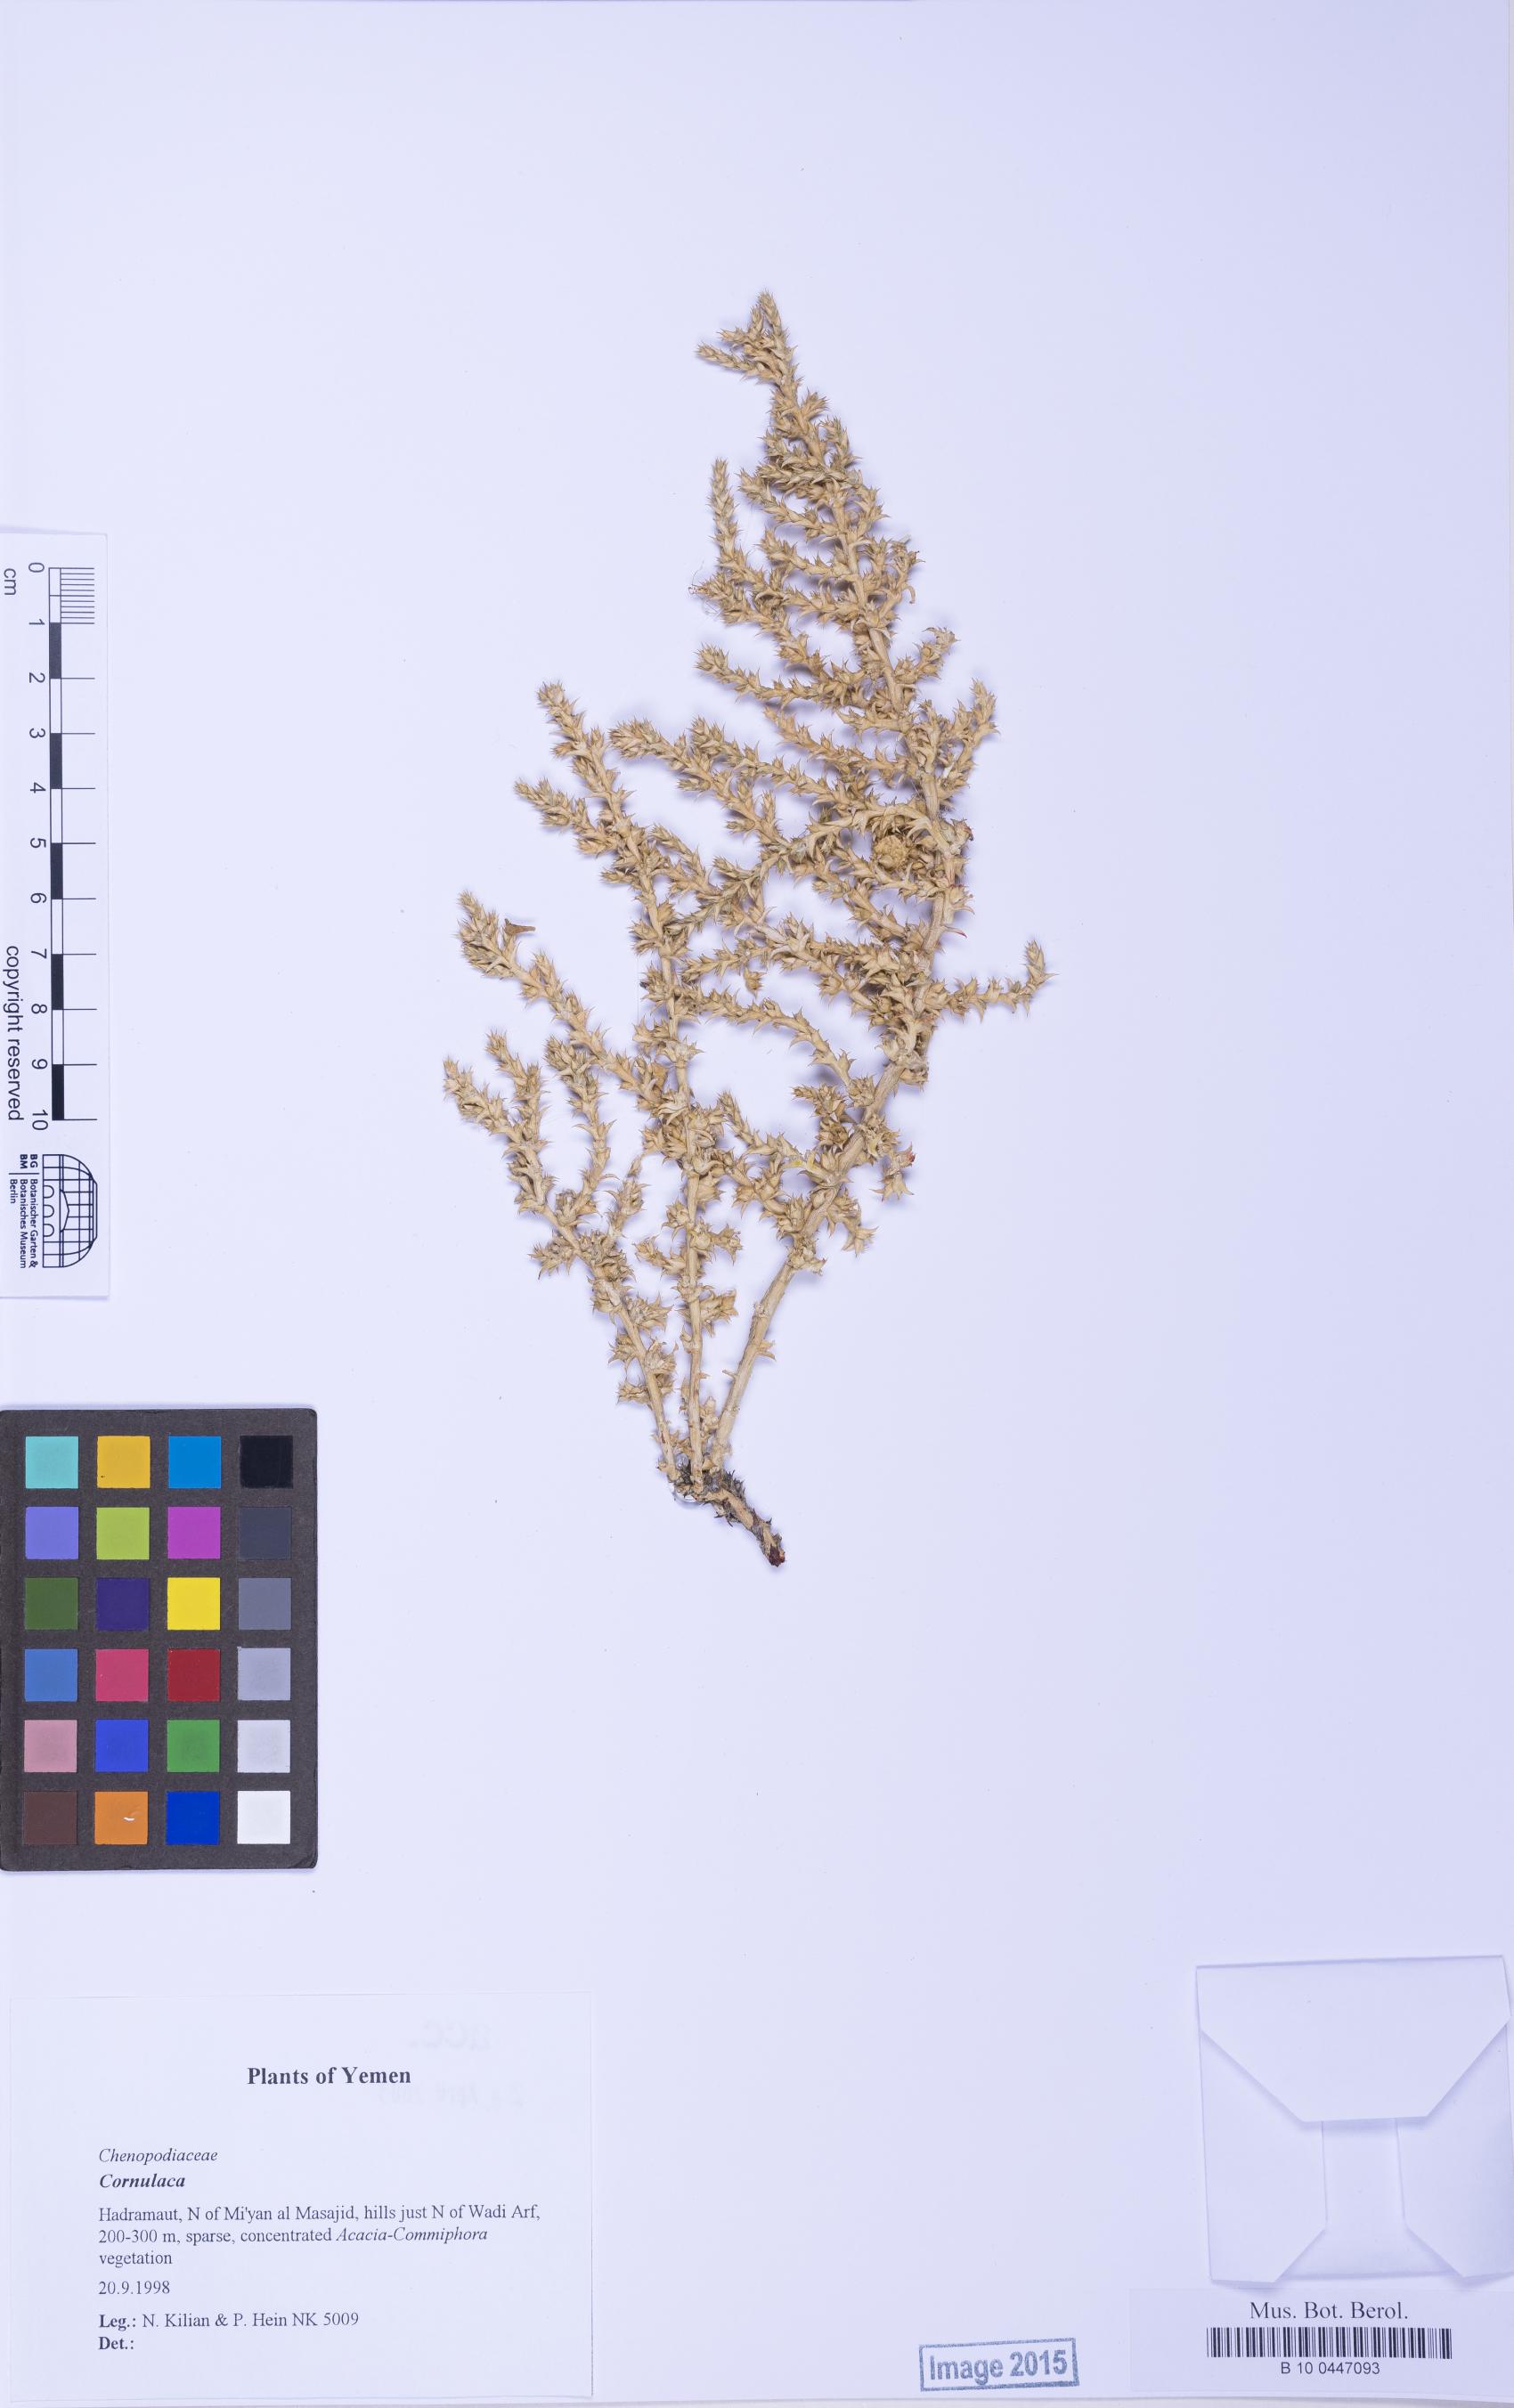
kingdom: Plantae
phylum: Tracheophyta
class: Magnoliopsida
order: Caryophyllales
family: Amaranthaceae
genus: Cornulaca
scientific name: Cornulaca
